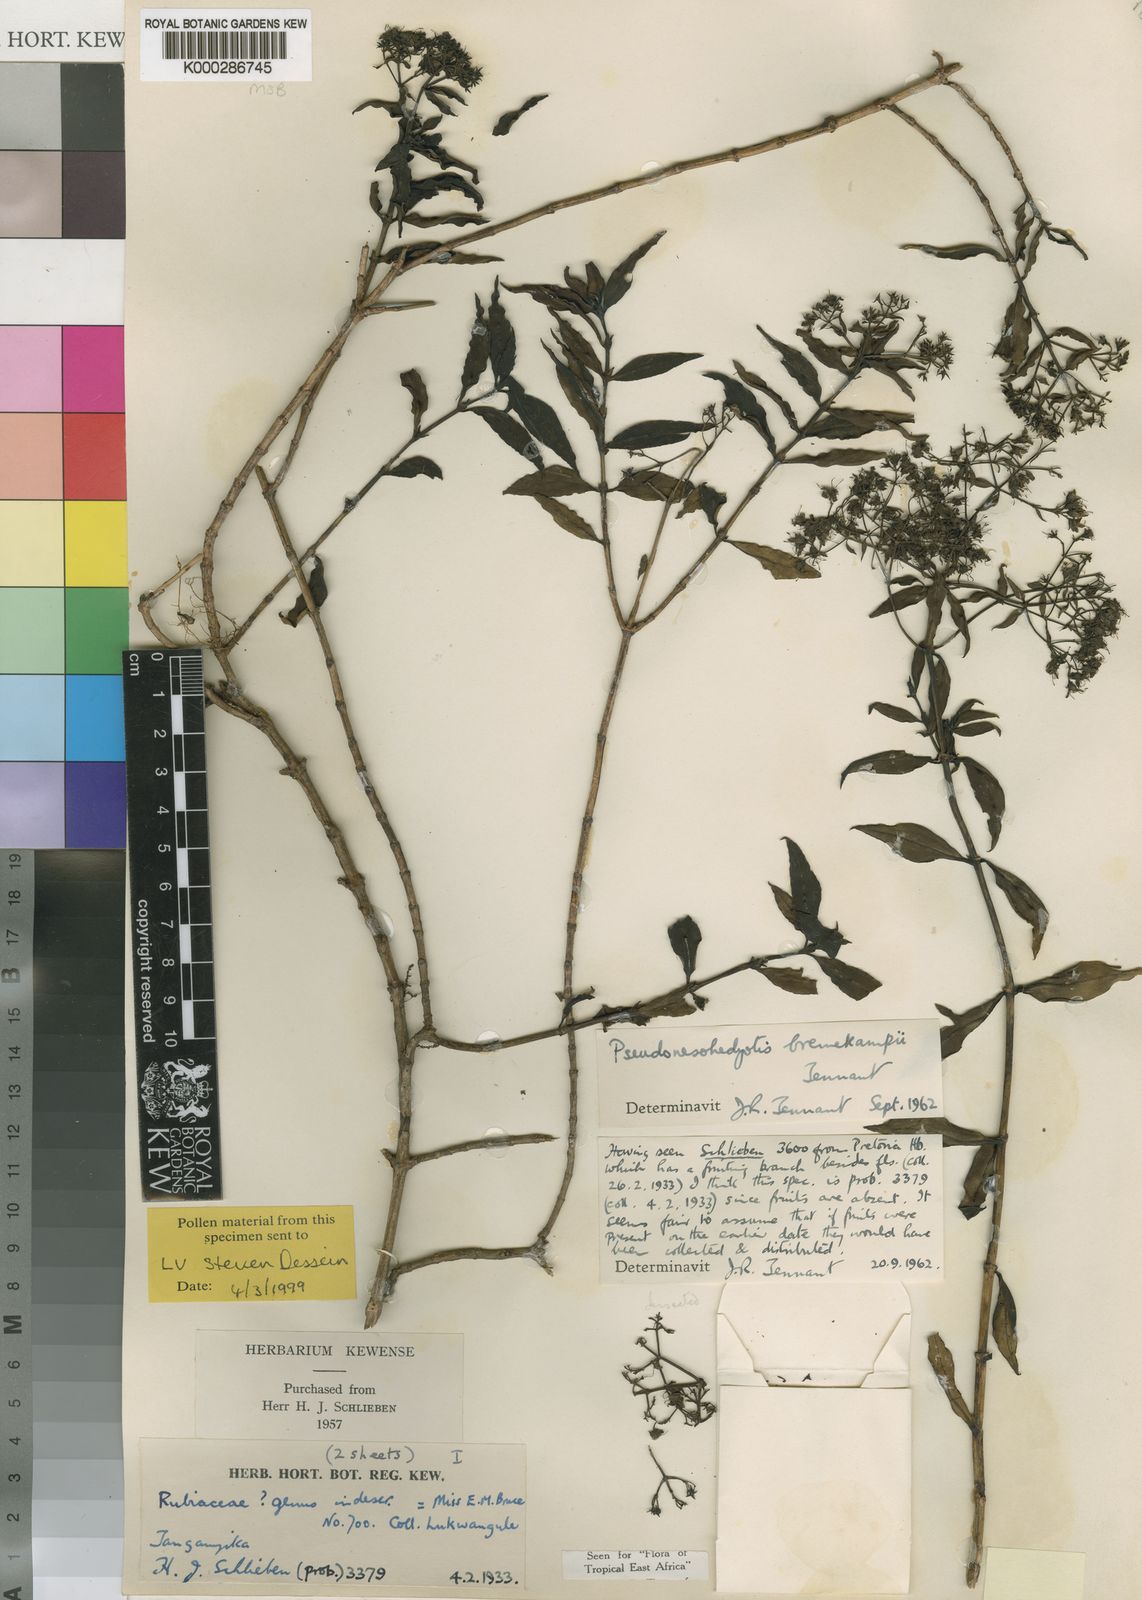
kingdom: Plantae
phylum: Tracheophyta
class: Magnoliopsida
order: Gentianales
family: Rubiaceae
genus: Pseudonesohedyotis
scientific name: Pseudonesohedyotis bremekampii
